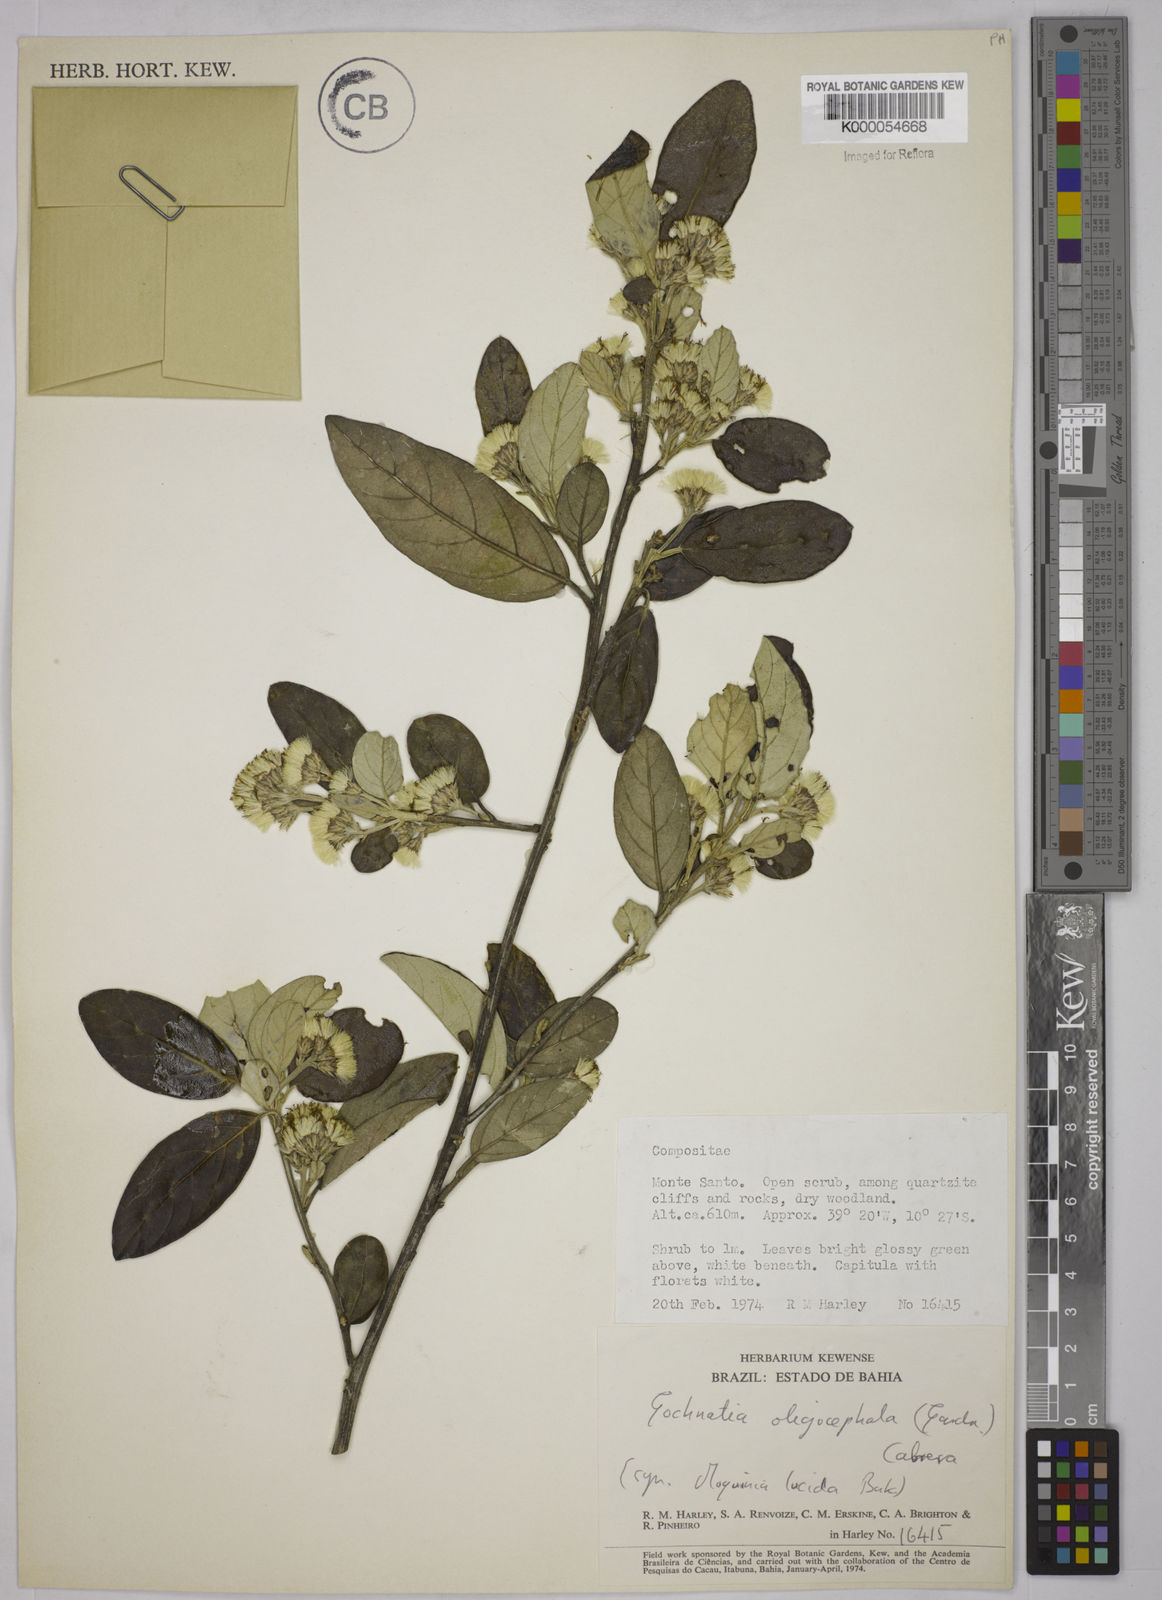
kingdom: Plantae
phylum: Tracheophyta
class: Magnoliopsida
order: Asterales
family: Asteraceae
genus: Moquiniastrum
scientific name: Moquiniastrum oligocephalum
